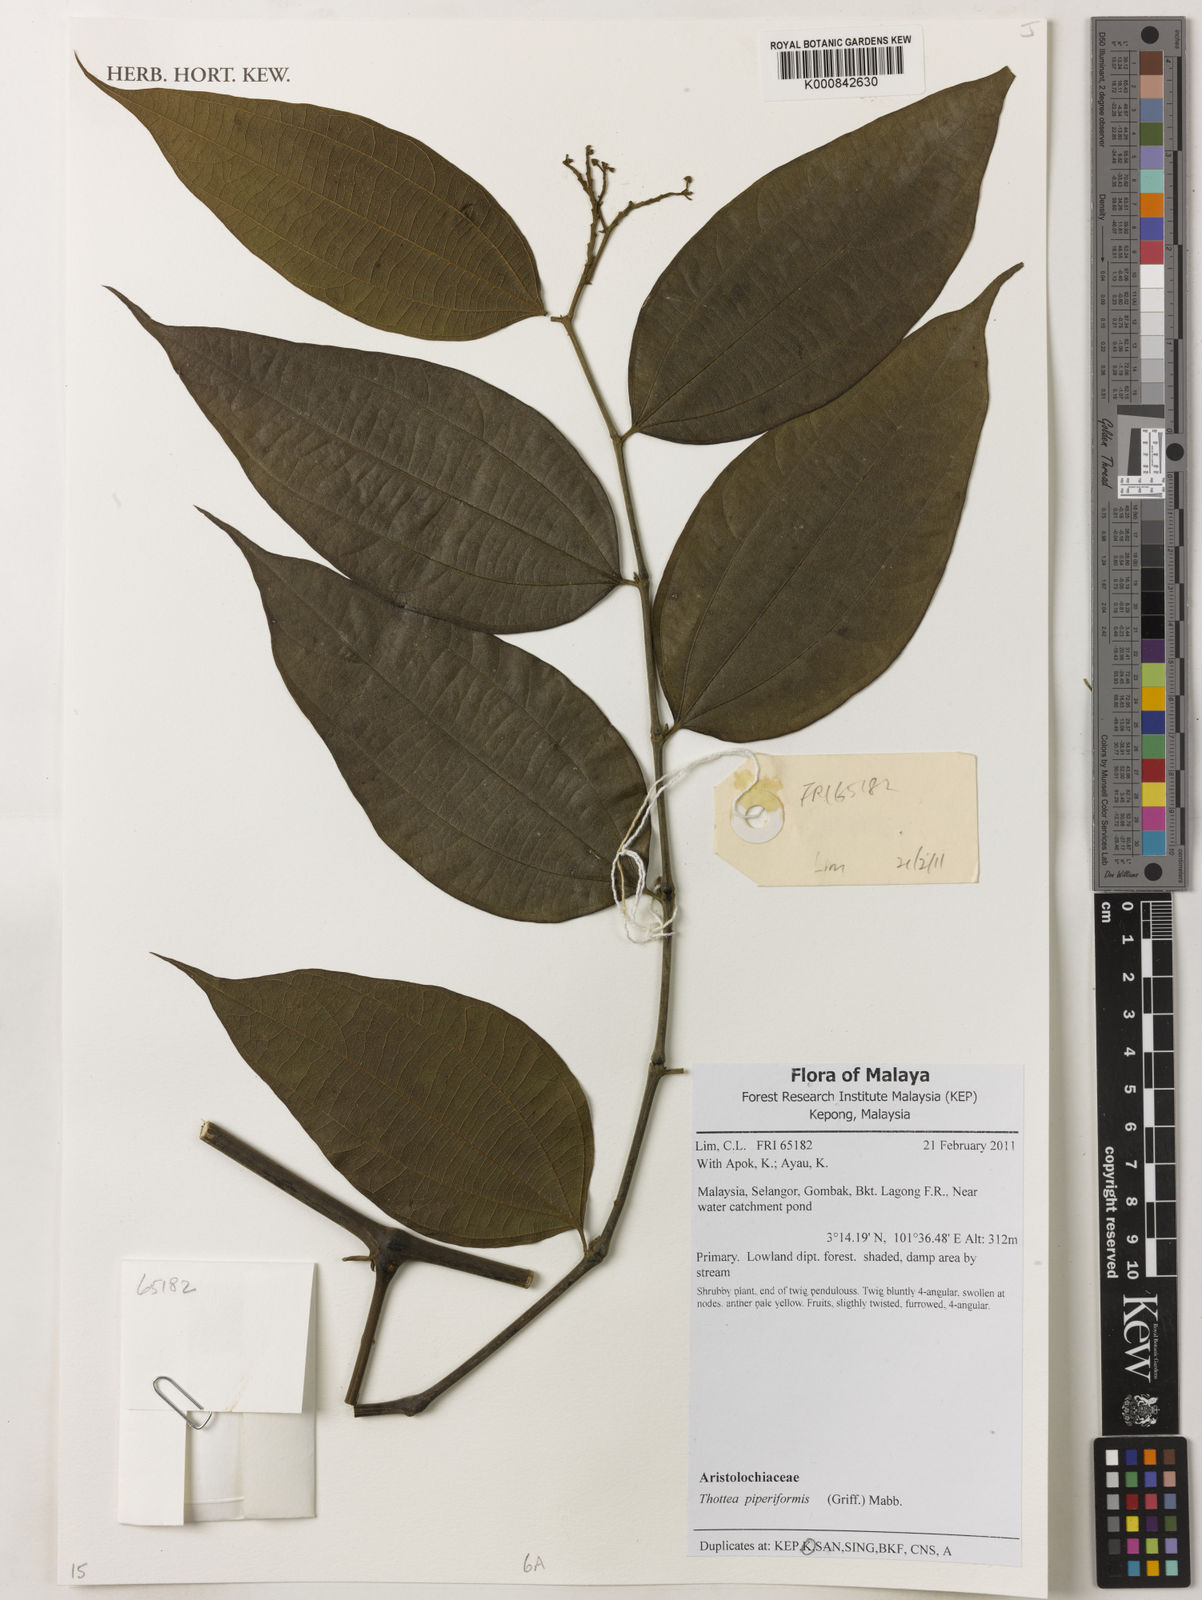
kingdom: Plantae
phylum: Tracheophyta
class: Magnoliopsida
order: Piperales
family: Aristolochiaceae
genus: Thottea
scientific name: Thottea piperiformis
